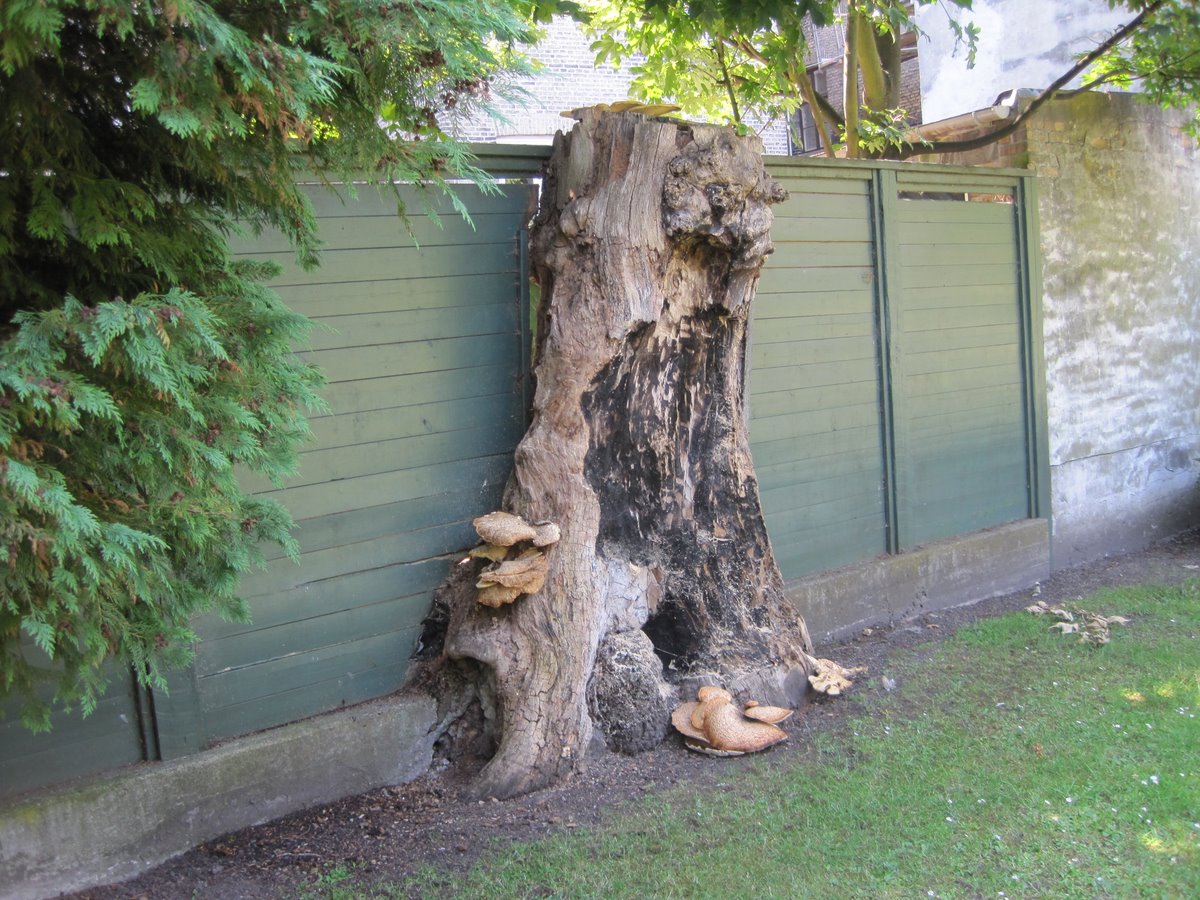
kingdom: Fungi
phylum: Basidiomycota
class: Agaricomycetes
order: Polyporales
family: Polyporaceae
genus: Cerioporus
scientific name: Cerioporus squamosus
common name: skællet stilkporesvamp
